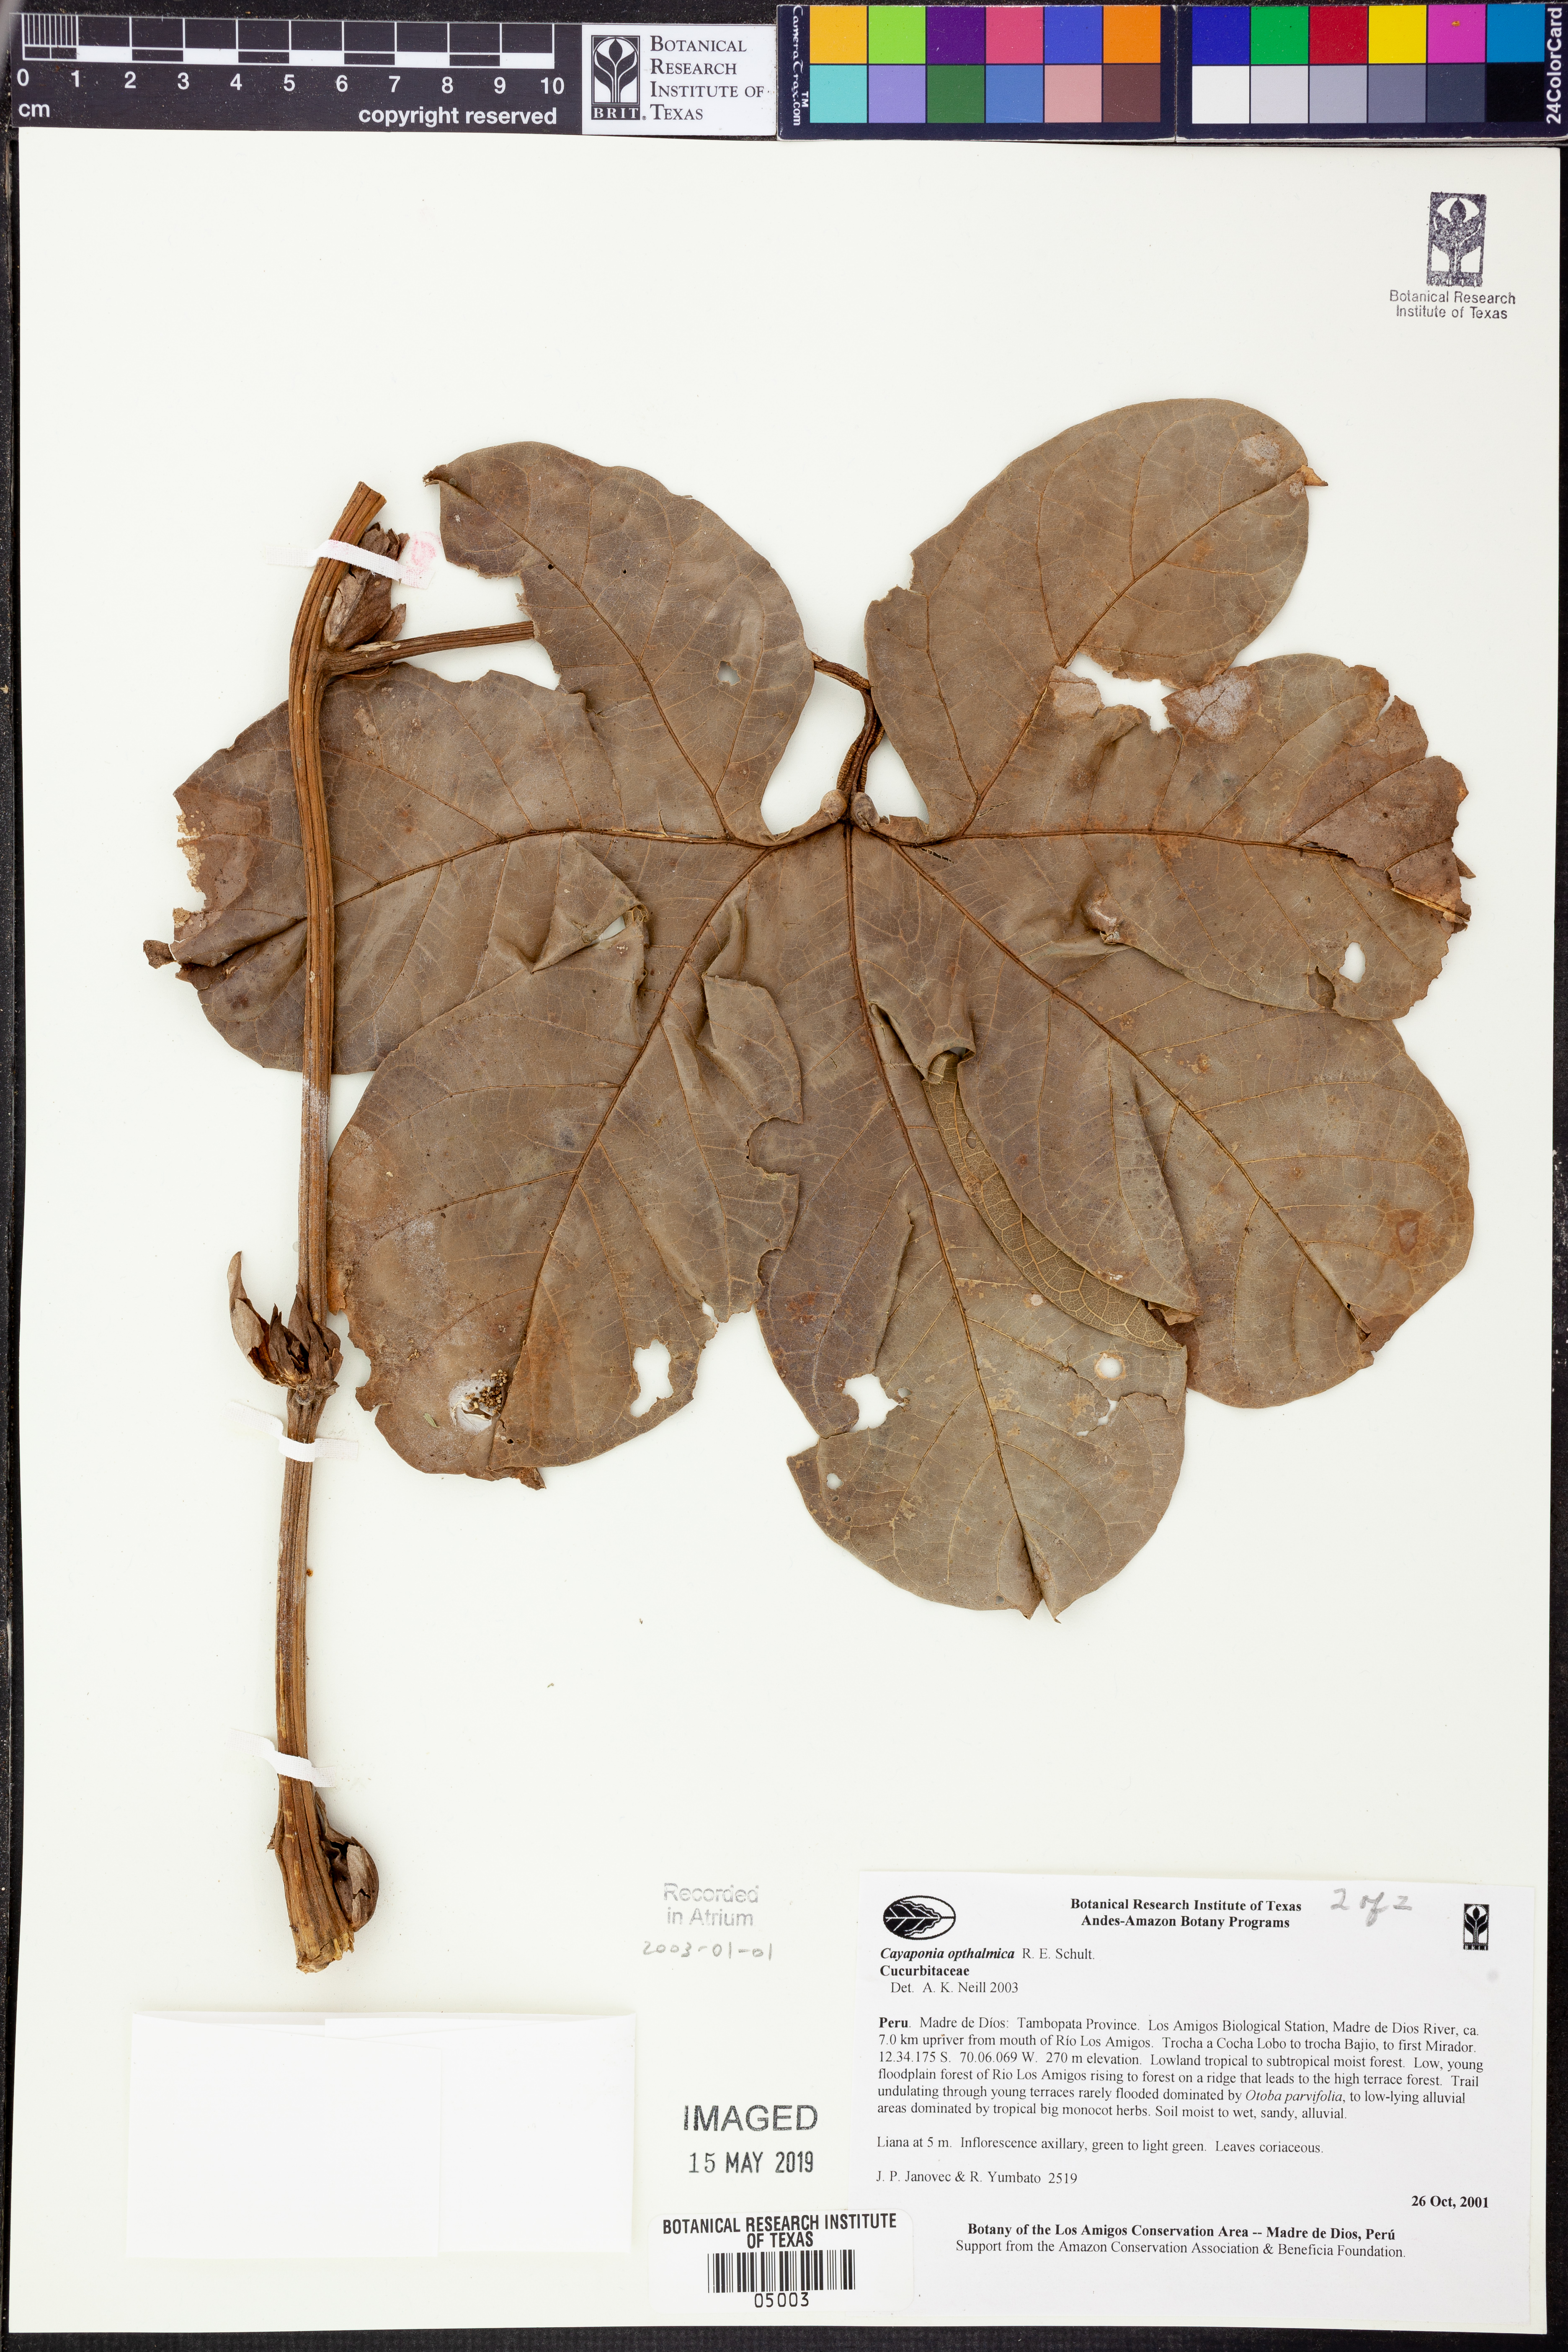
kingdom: Plantae
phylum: Tracheophyta
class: Magnoliopsida
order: Cucurbitales
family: Cucurbitaceae
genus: Cayaponia
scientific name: Cayaponia
